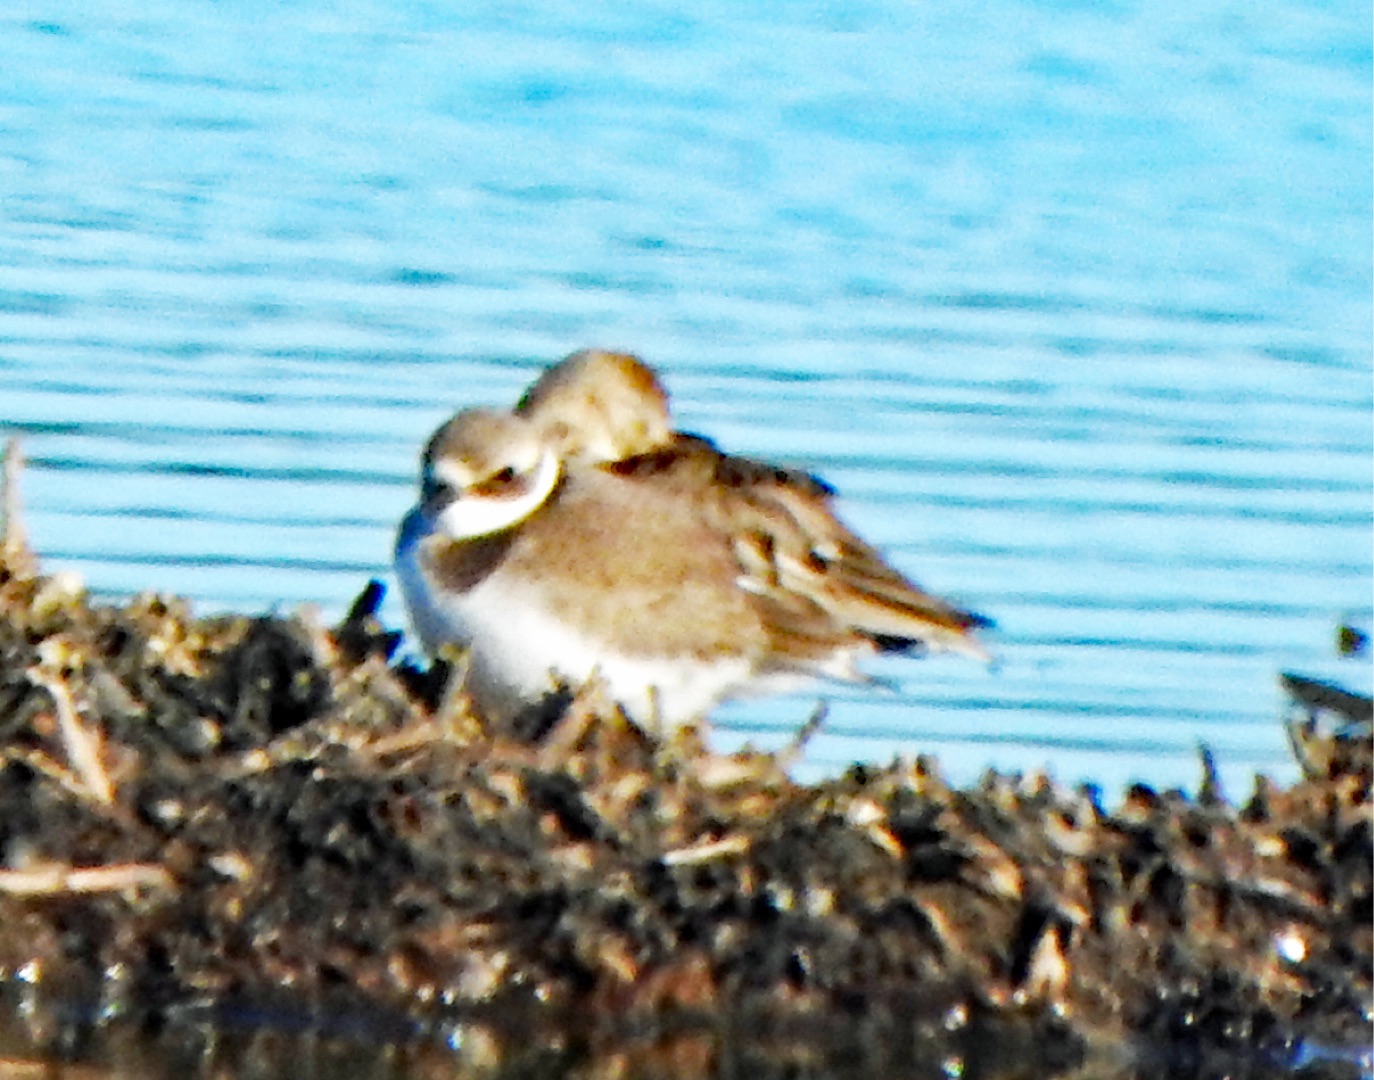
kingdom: Animalia
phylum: Chordata
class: Aves
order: Charadriiformes
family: Charadriidae
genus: Charadrius
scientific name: Charadrius hiaticula
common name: Stor præstekrave
